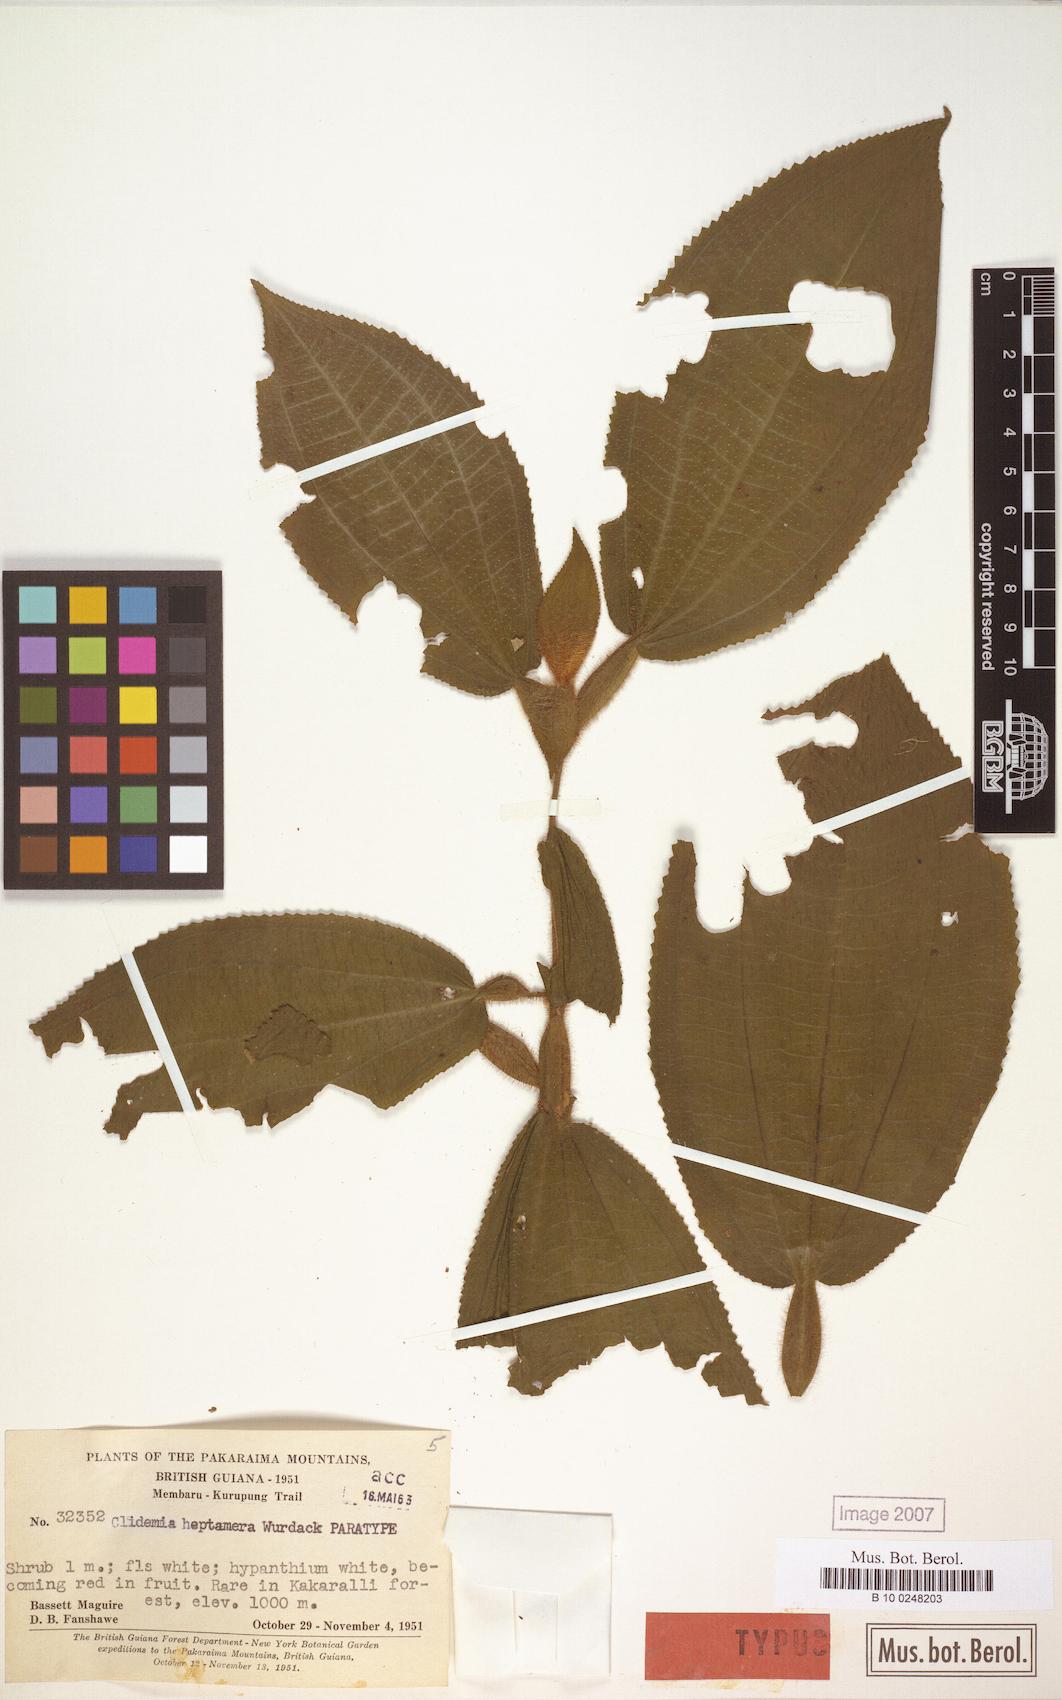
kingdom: Plantae
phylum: Tracheophyta
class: Magnoliopsida
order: Myrtales
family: Melastomataceae
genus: Miconia
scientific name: Miconia heptamera
